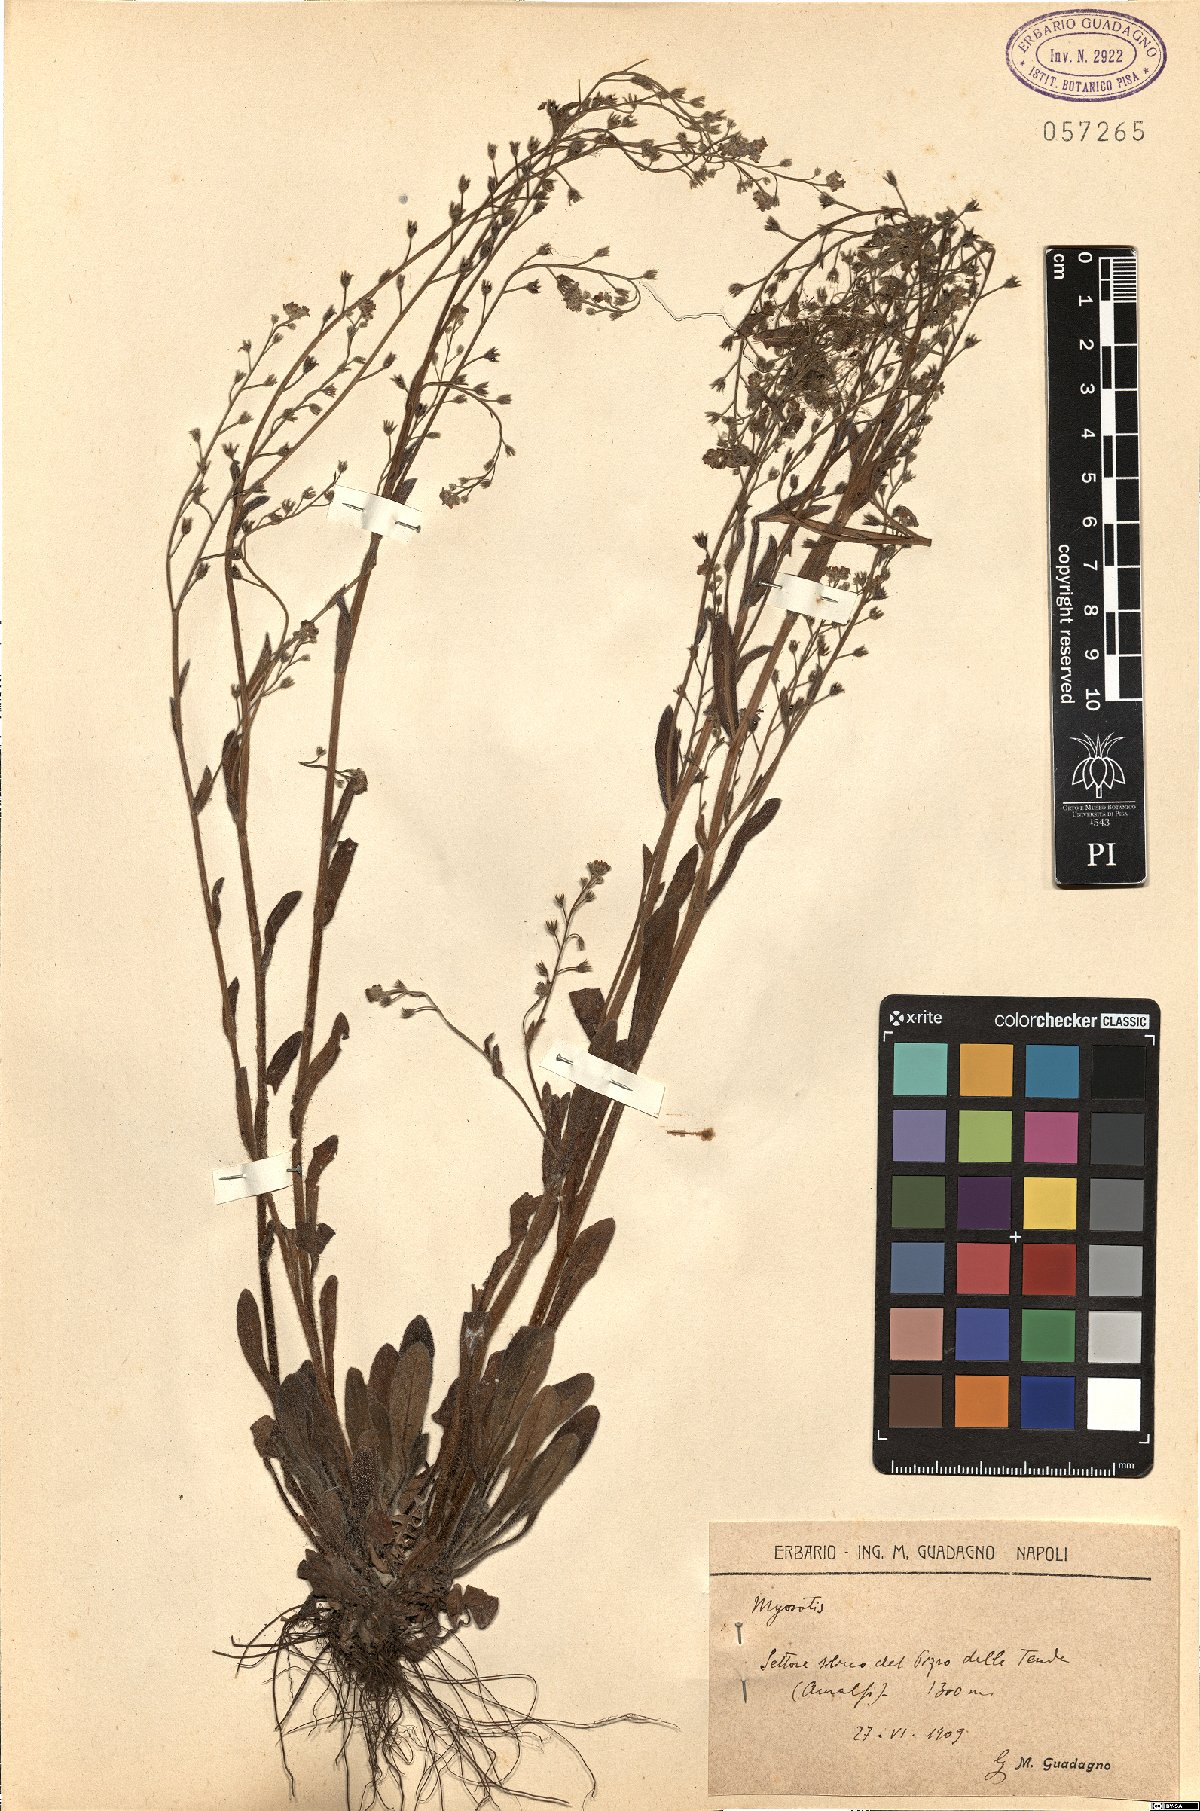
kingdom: Plantae
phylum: Tracheophyta
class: Magnoliopsida
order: Boraginales
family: Boraginaceae
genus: Myosotis
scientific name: Myosotis
